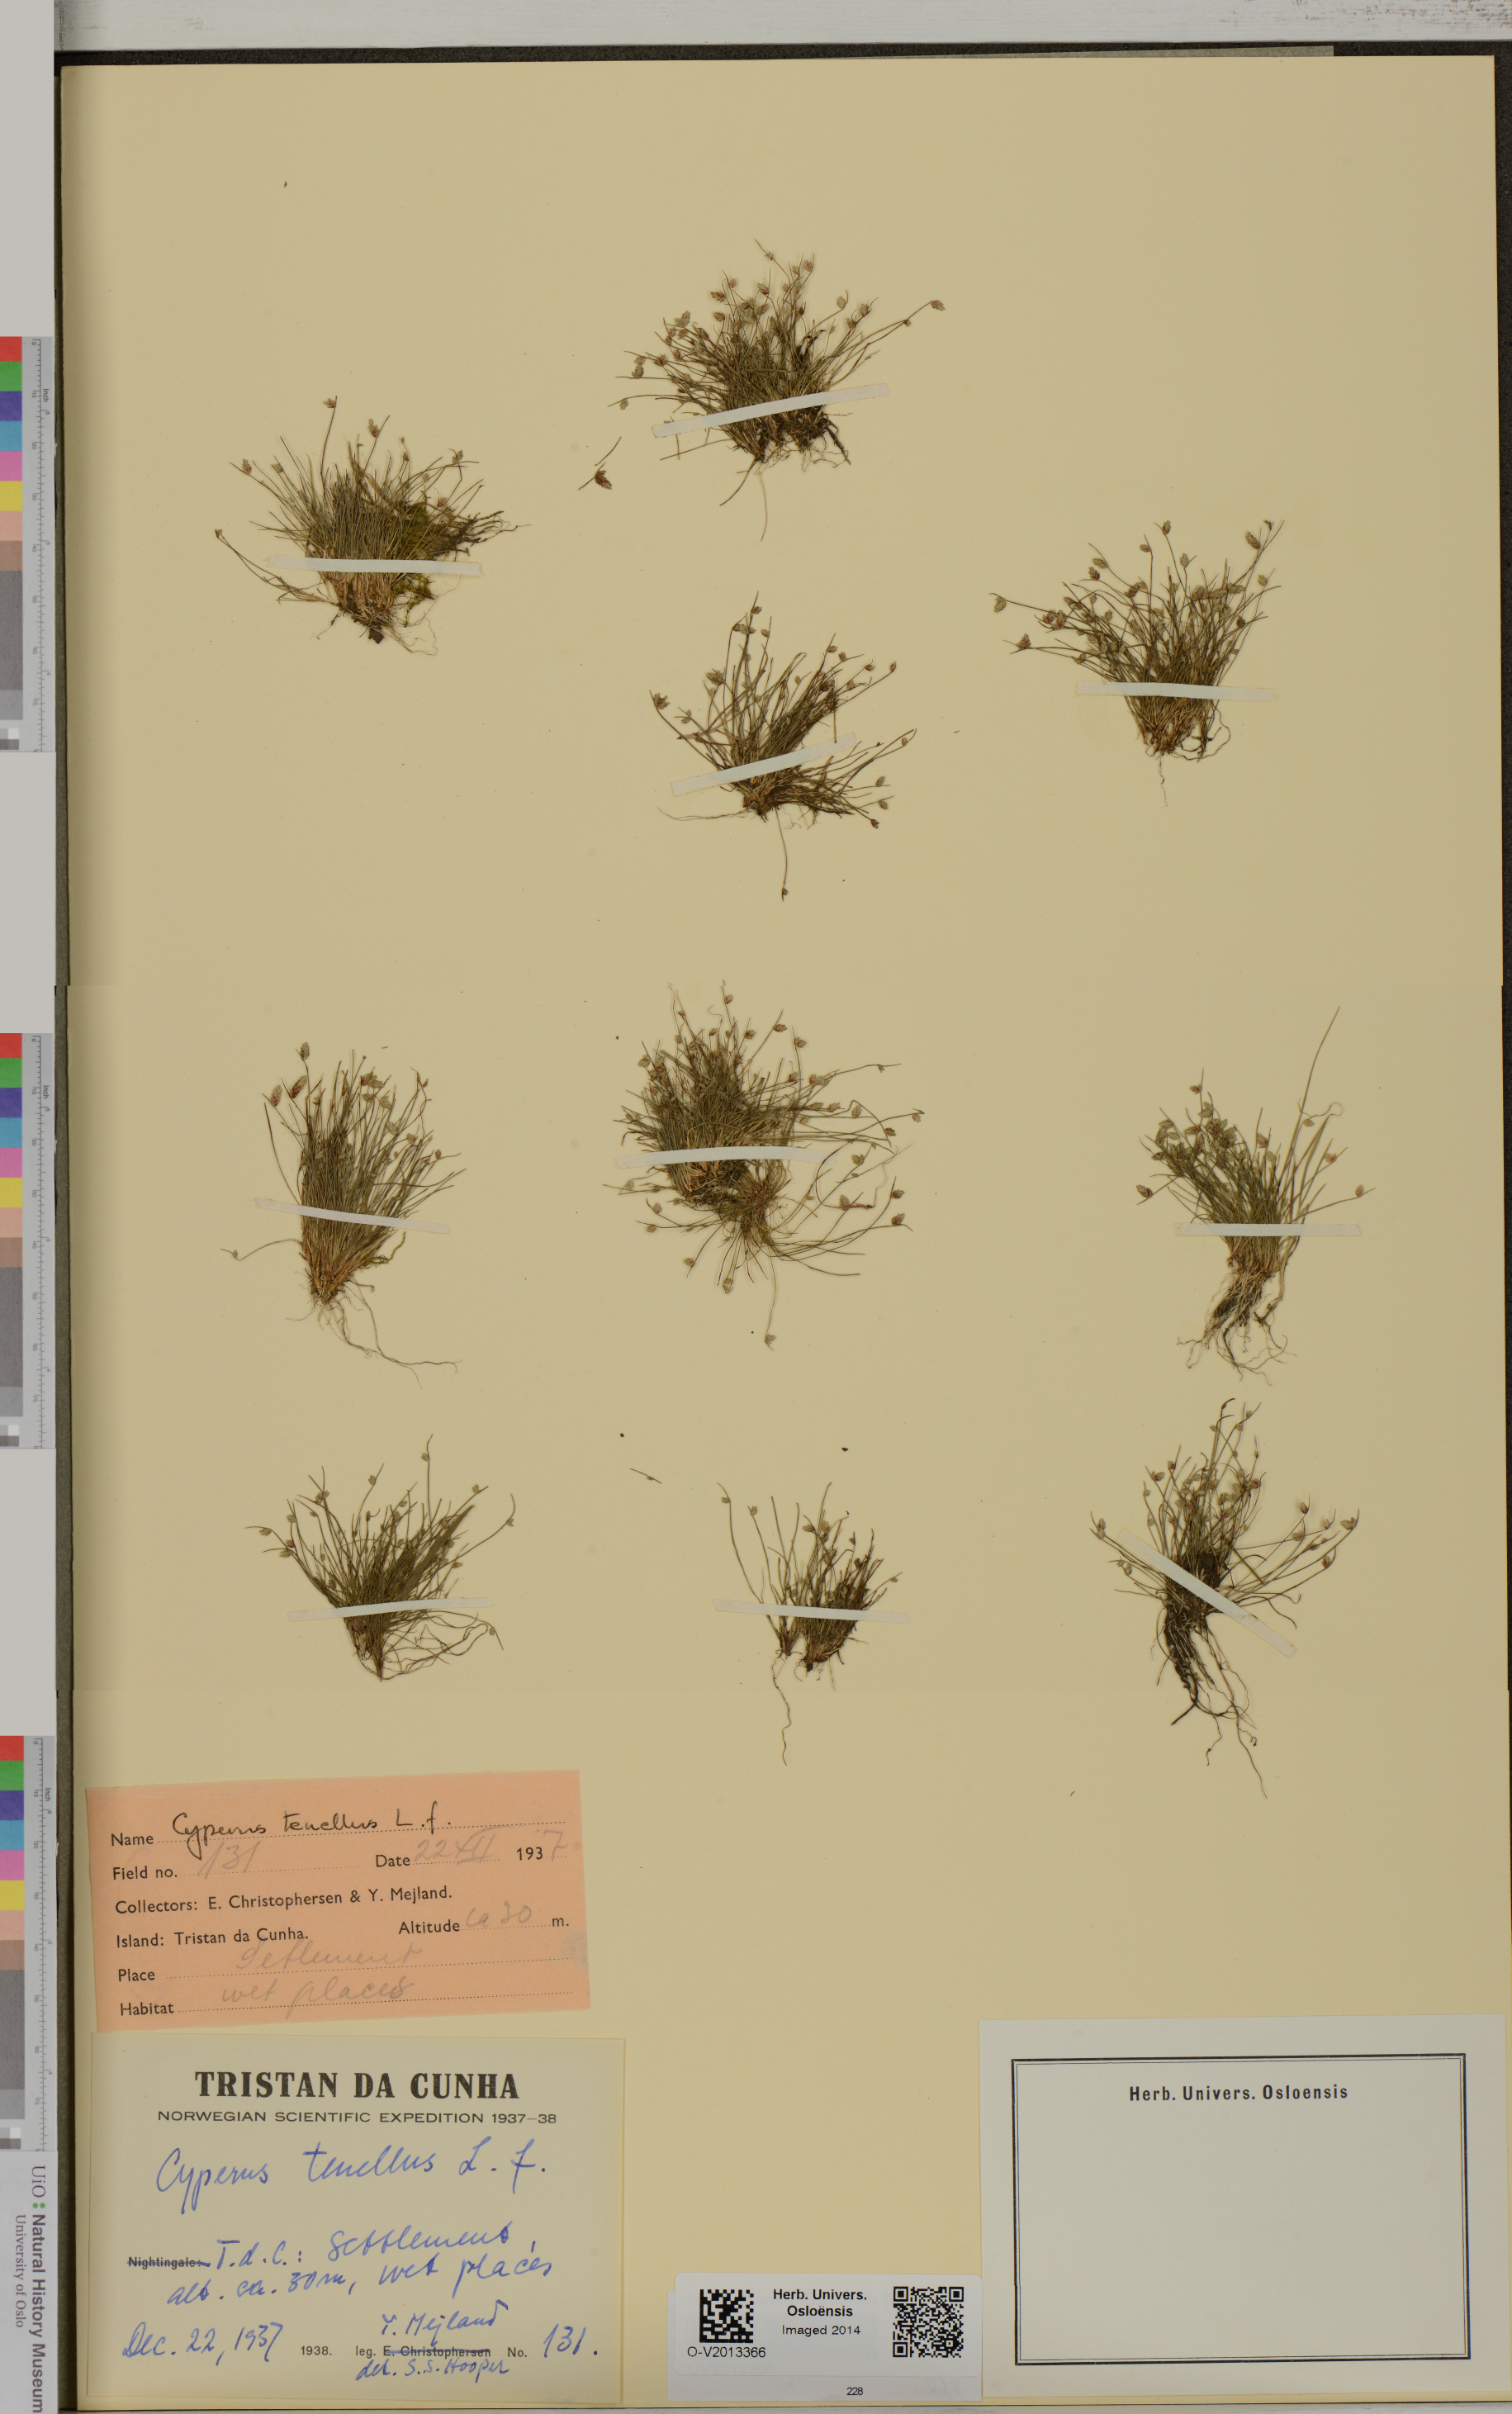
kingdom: Plantae
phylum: Tracheophyta
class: Liliopsida
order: Poales
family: Cyperaceae
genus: Isolepis
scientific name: Isolepis levynsiana
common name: Sedge
